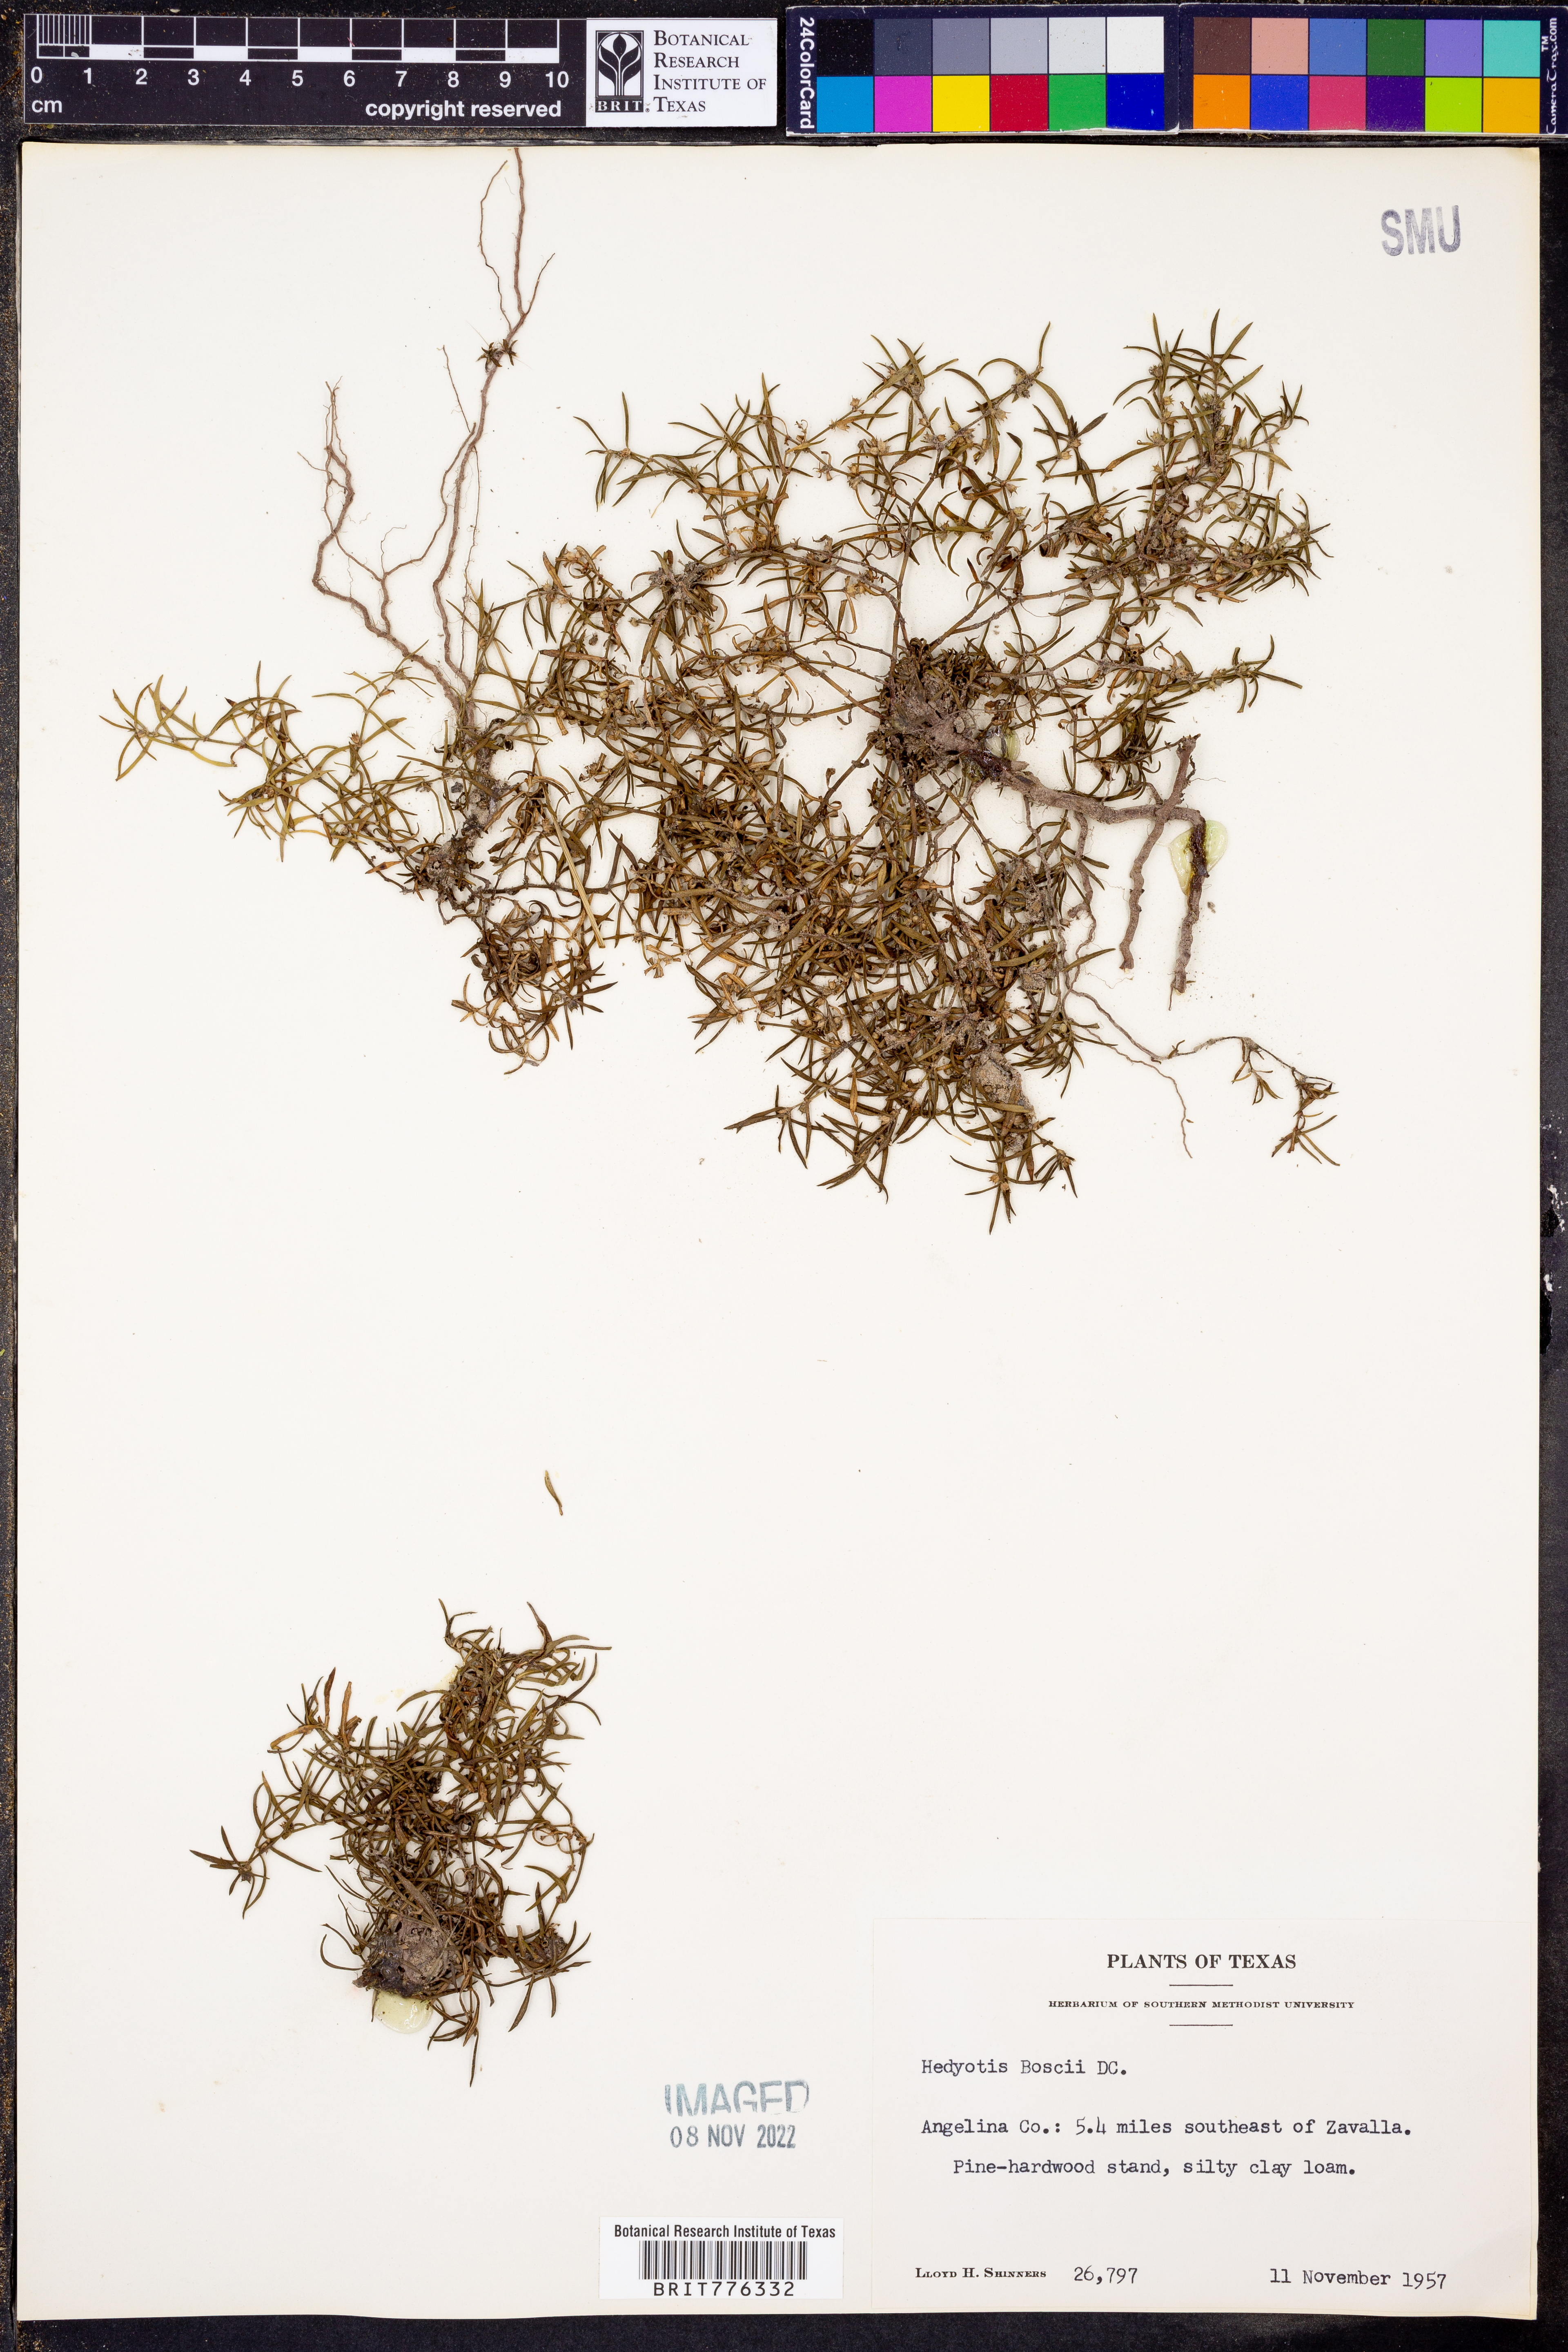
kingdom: Plantae
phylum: Tracheophyta
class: Magnoliopsida
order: Gentianales
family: Rubiaceae
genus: Oldenlandia
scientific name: Oldenlandia boscii
